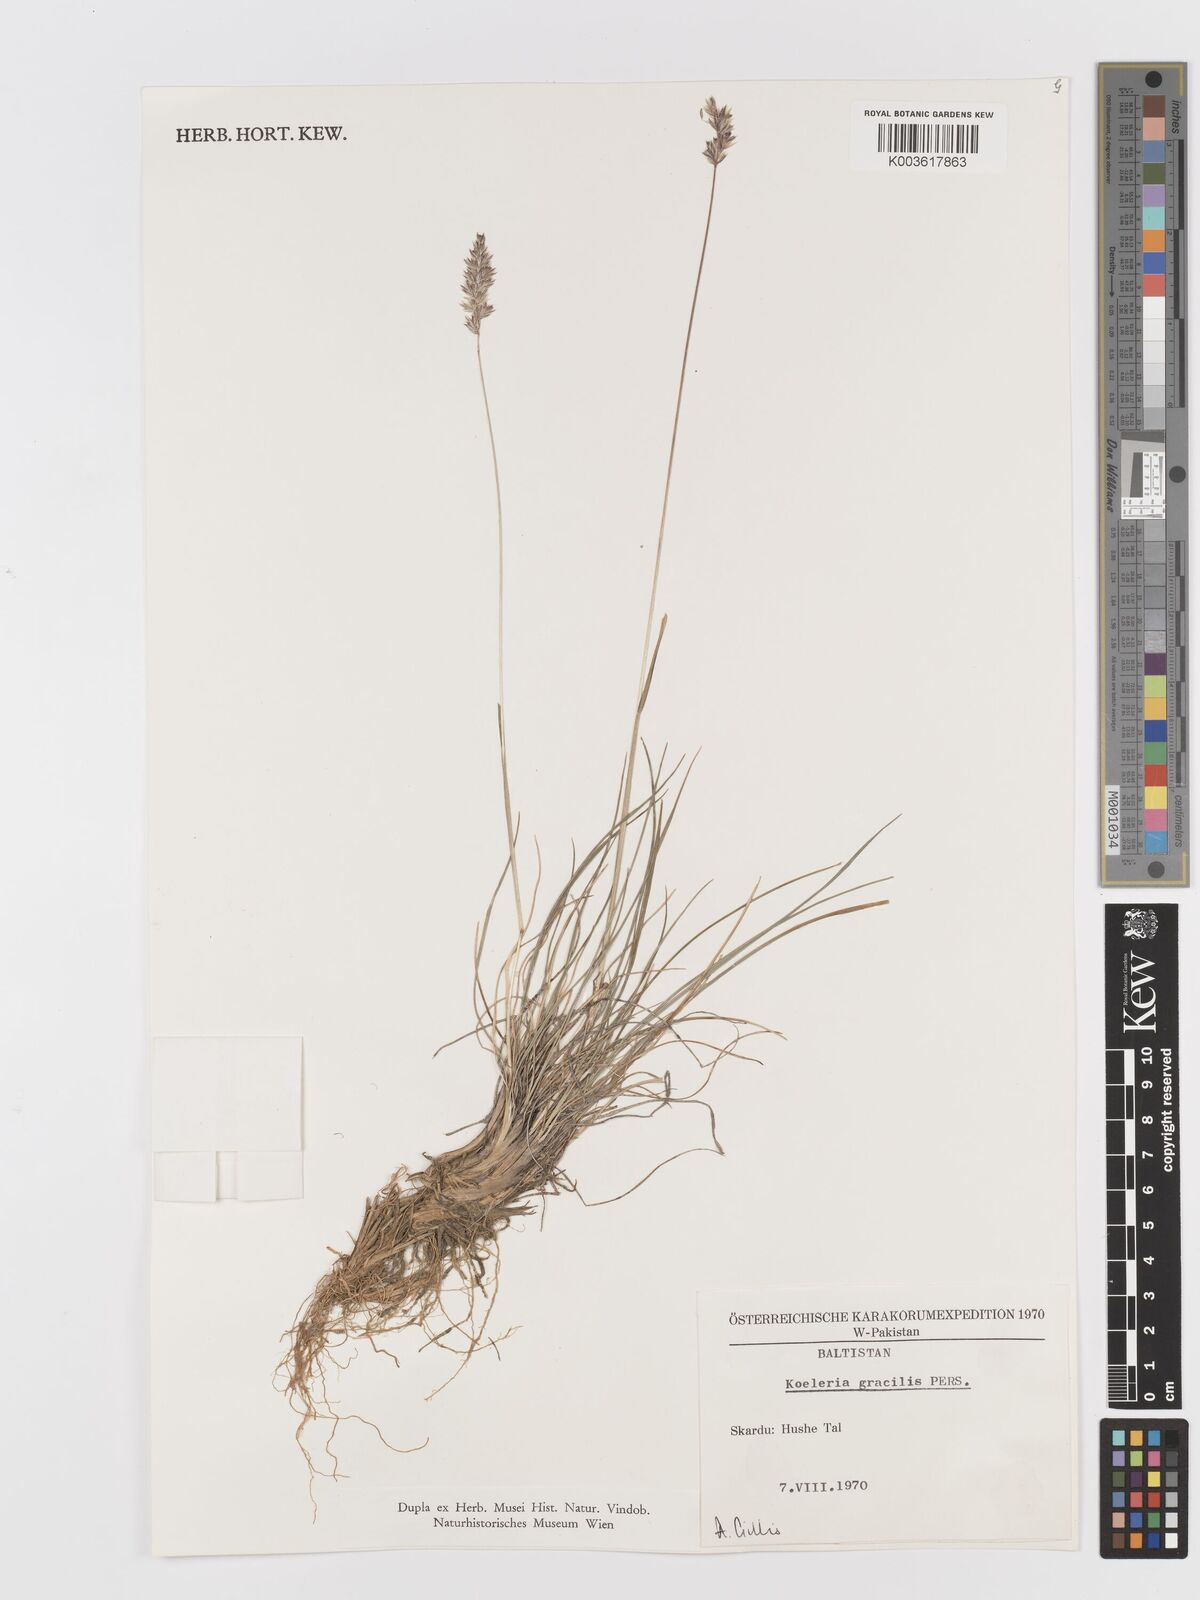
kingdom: Plantae
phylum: Tracheophyta
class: Liliopsida
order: Poales
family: Poaceae
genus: Koeleria
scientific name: Koeleria macrantha
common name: Crested hair-grass
